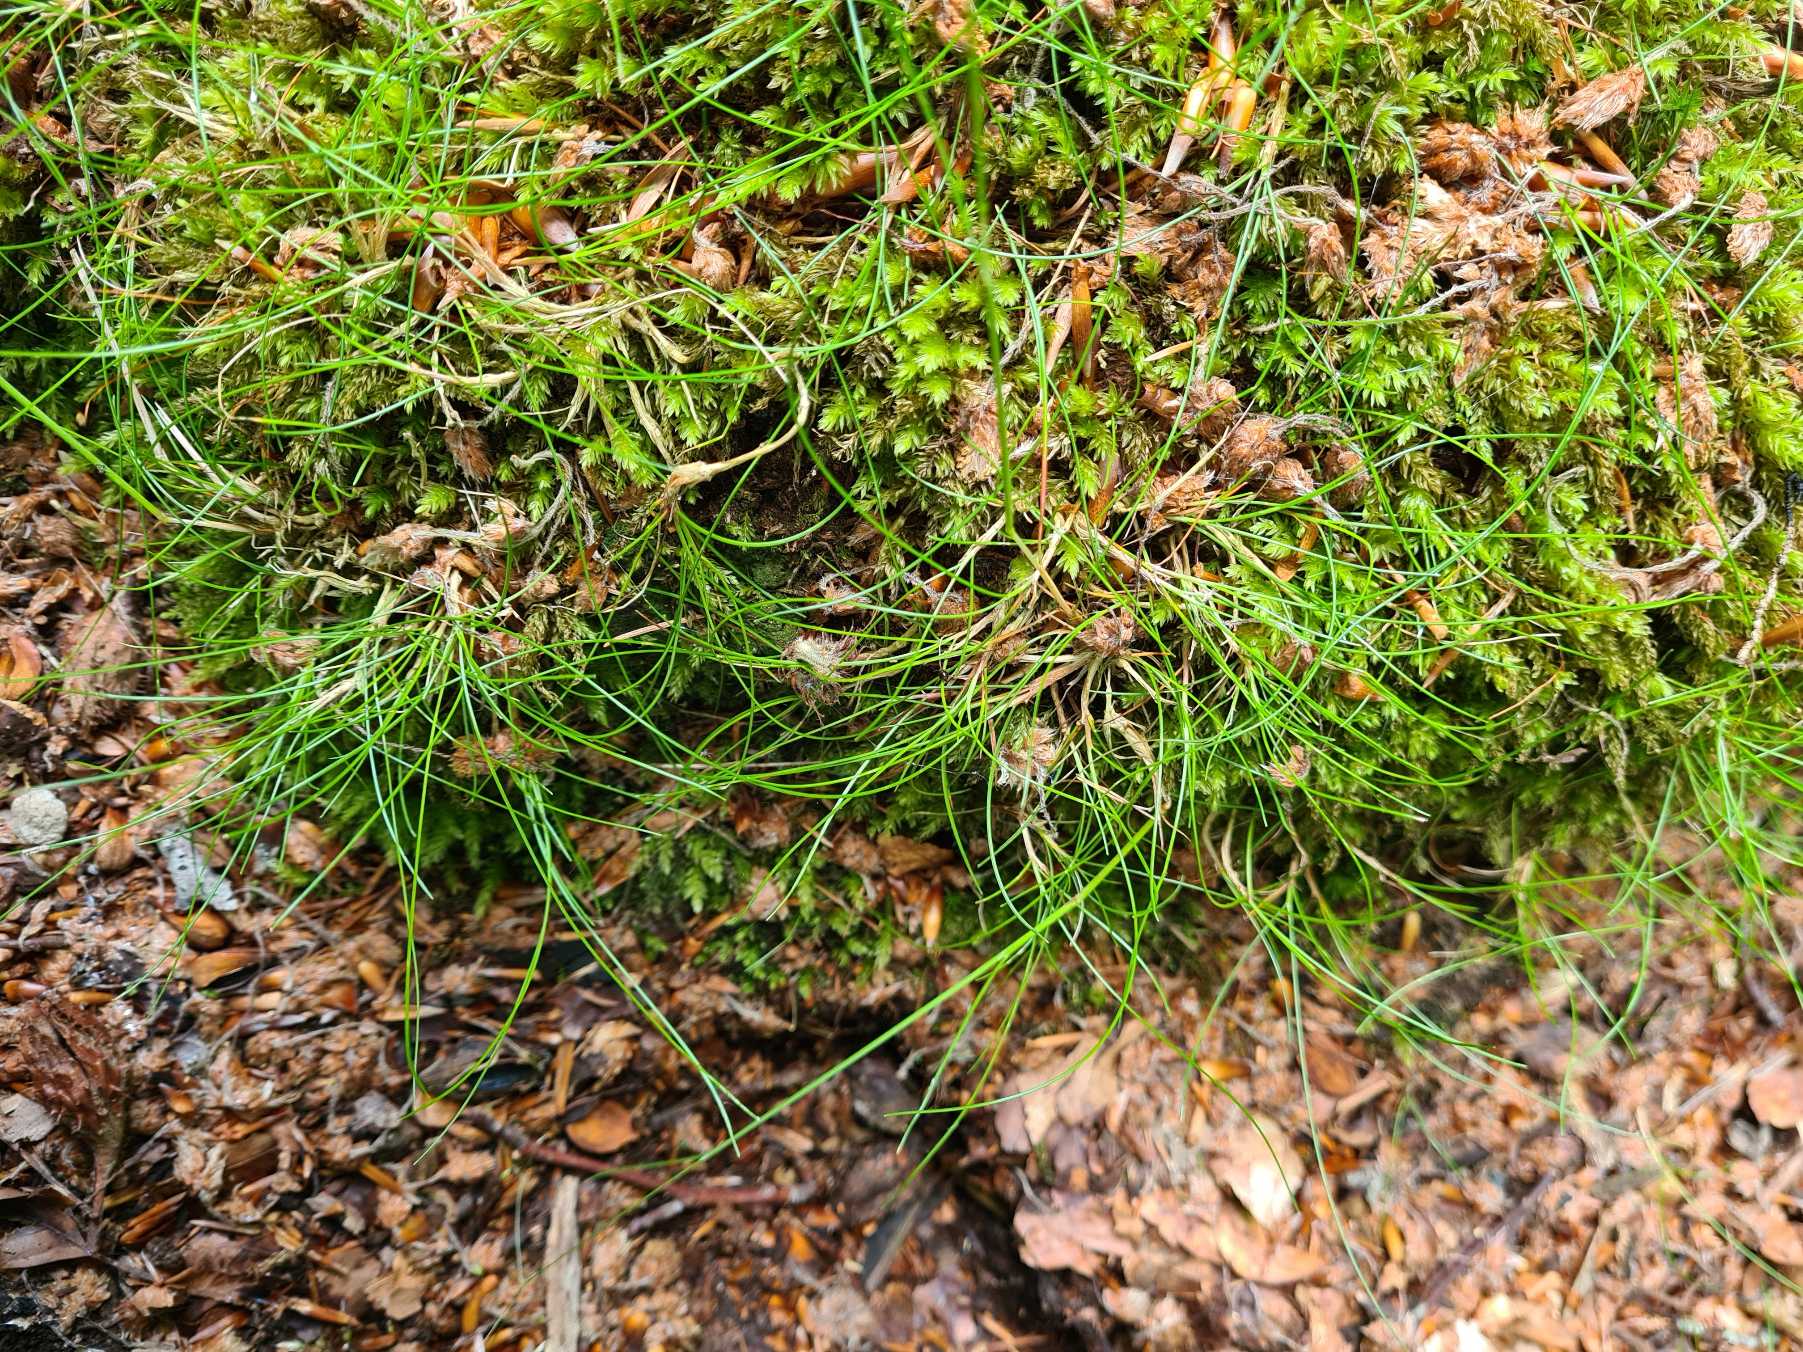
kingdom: Plantae
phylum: Tracheophyta
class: Liliopsida
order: Poales
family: Poaceae
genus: Avenella
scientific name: Avenella flexuosa
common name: Bølget bunke
